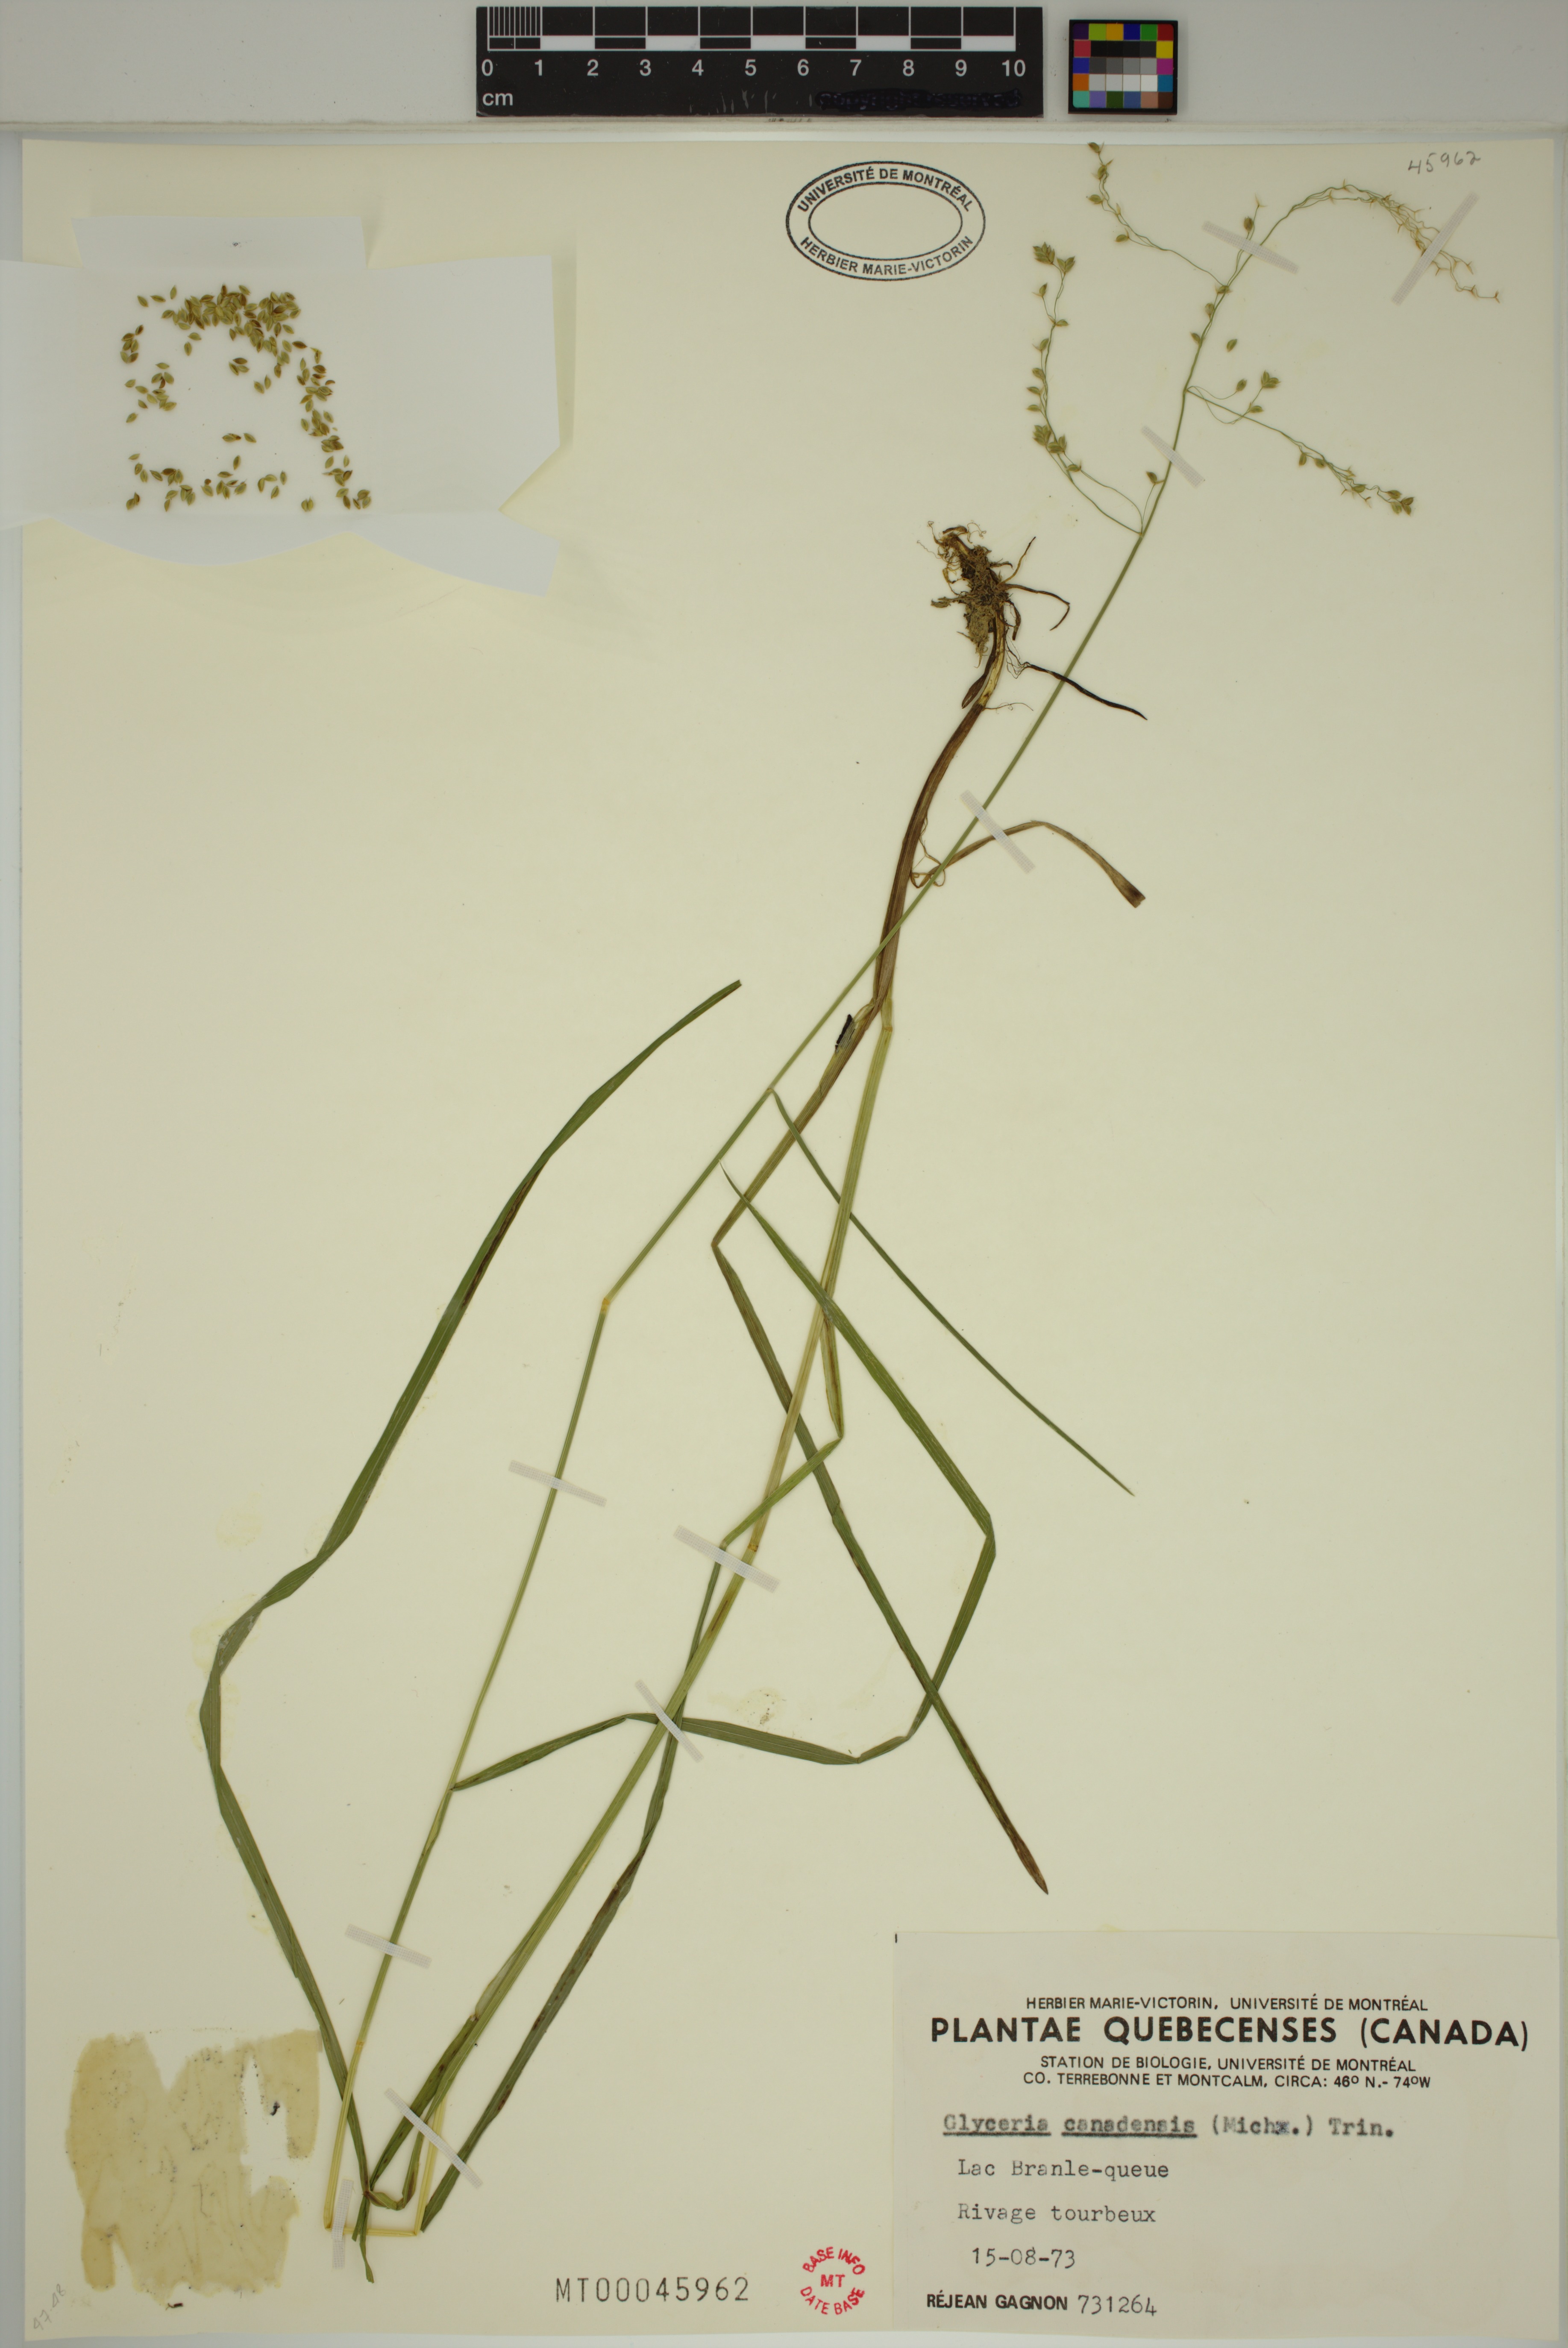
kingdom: Plantae
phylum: Tracheophyta
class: Liliopsida
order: Poales
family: Poaceae
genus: Glyceria
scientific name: Glyceria canadensis
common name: Canada mannagrass
